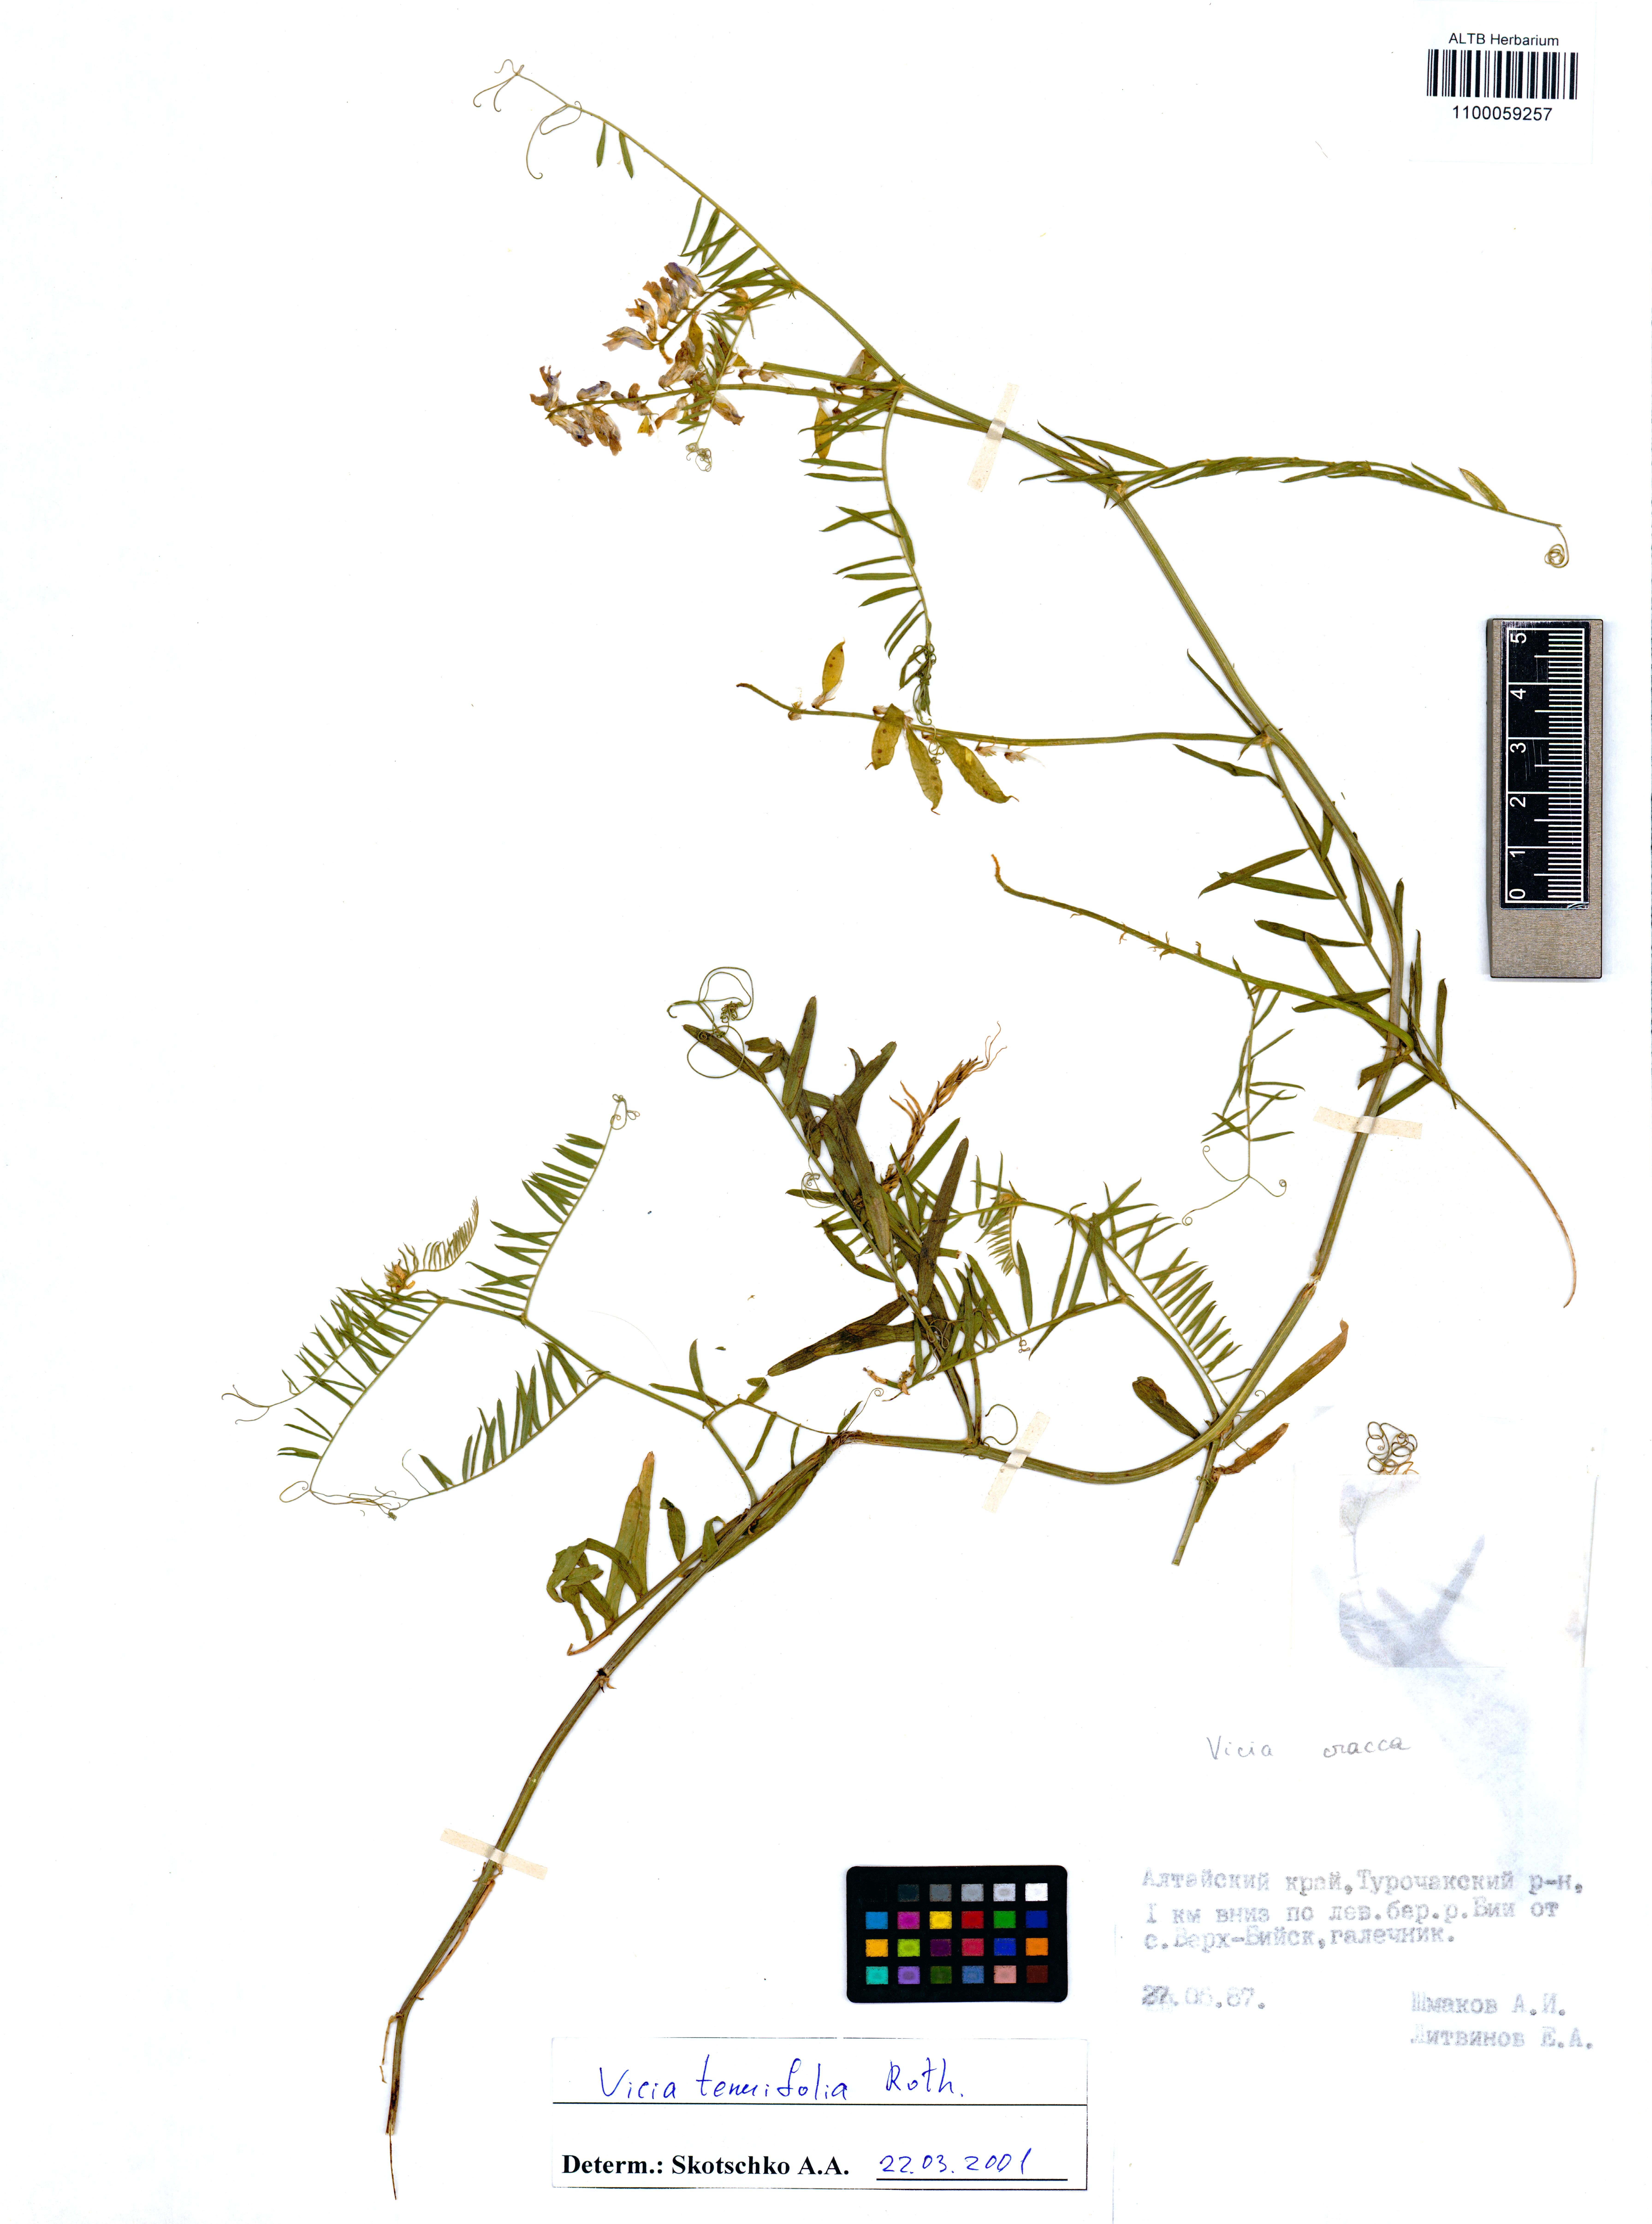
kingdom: Plantae
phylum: Tracheophyta
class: Magnoliopsida
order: Fabales
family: Fabaceae
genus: Vicia
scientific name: Vicia tenuifolia
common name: Fine-leaved vetch
